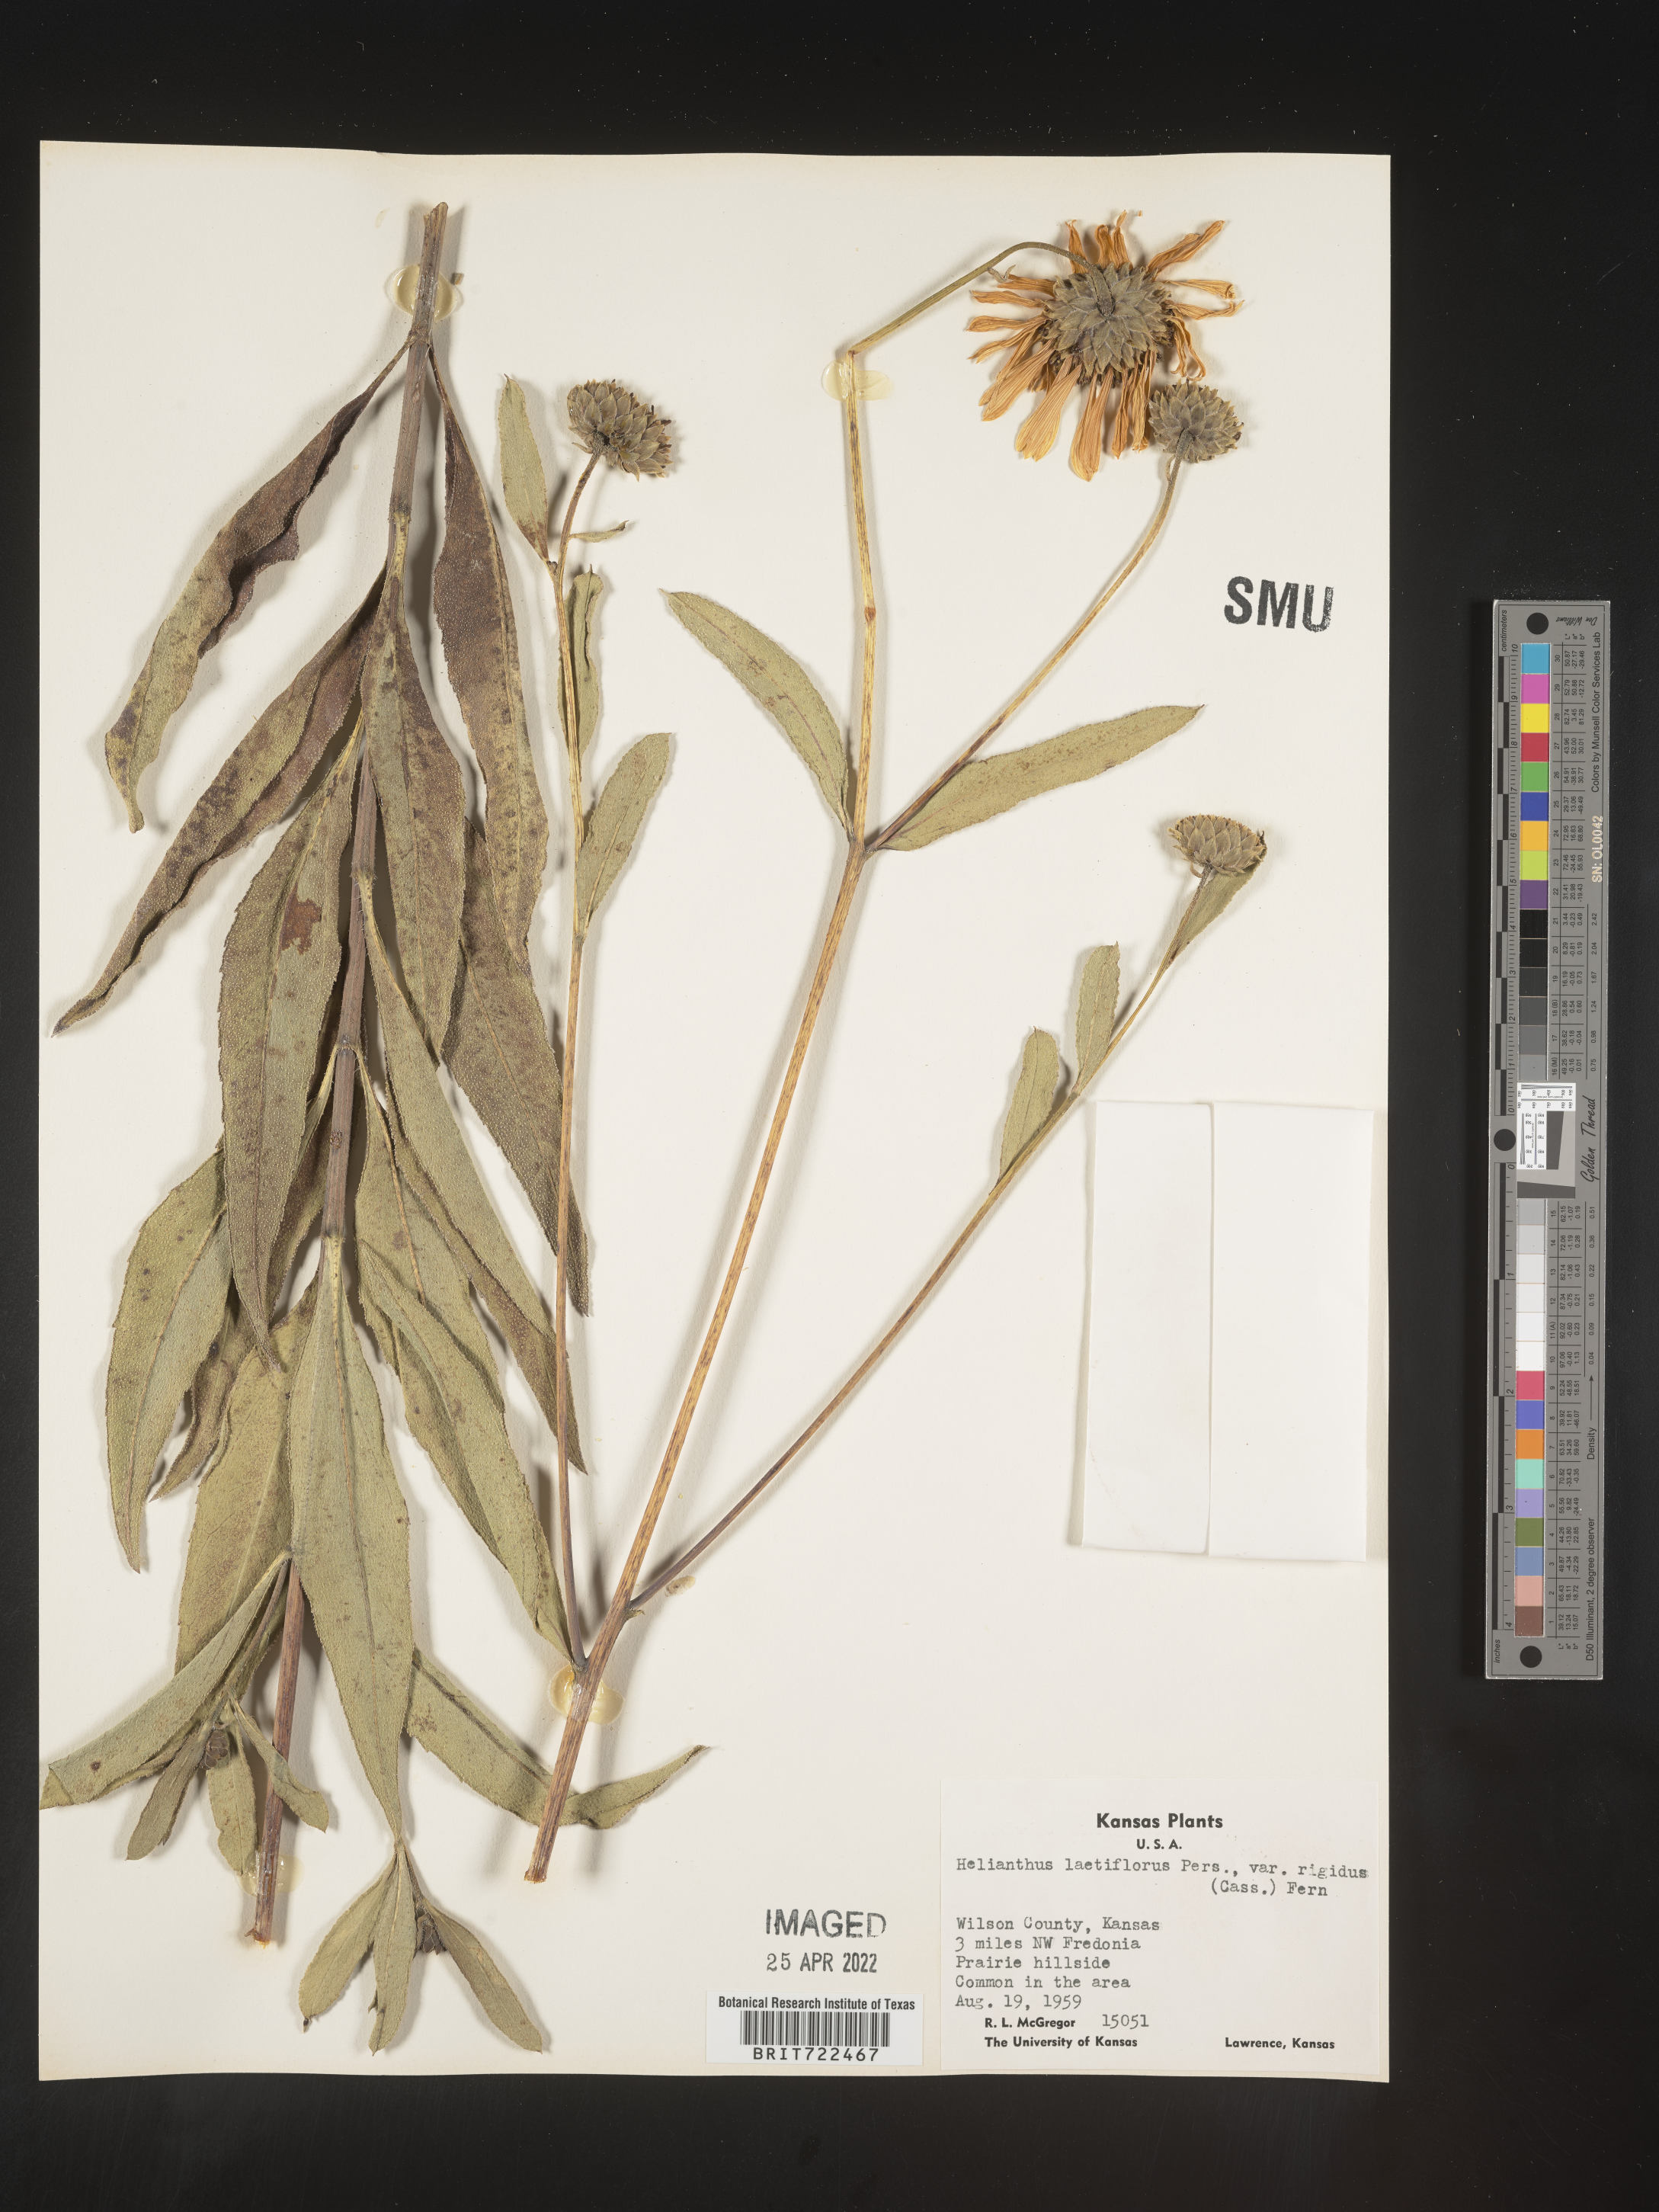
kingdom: Plantae
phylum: Tracheophyta
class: Magnoliopsida
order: Asterales
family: Asteraceae
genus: Helianthus
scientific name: Helianthus laetiflorus
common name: Perennial sunflower
